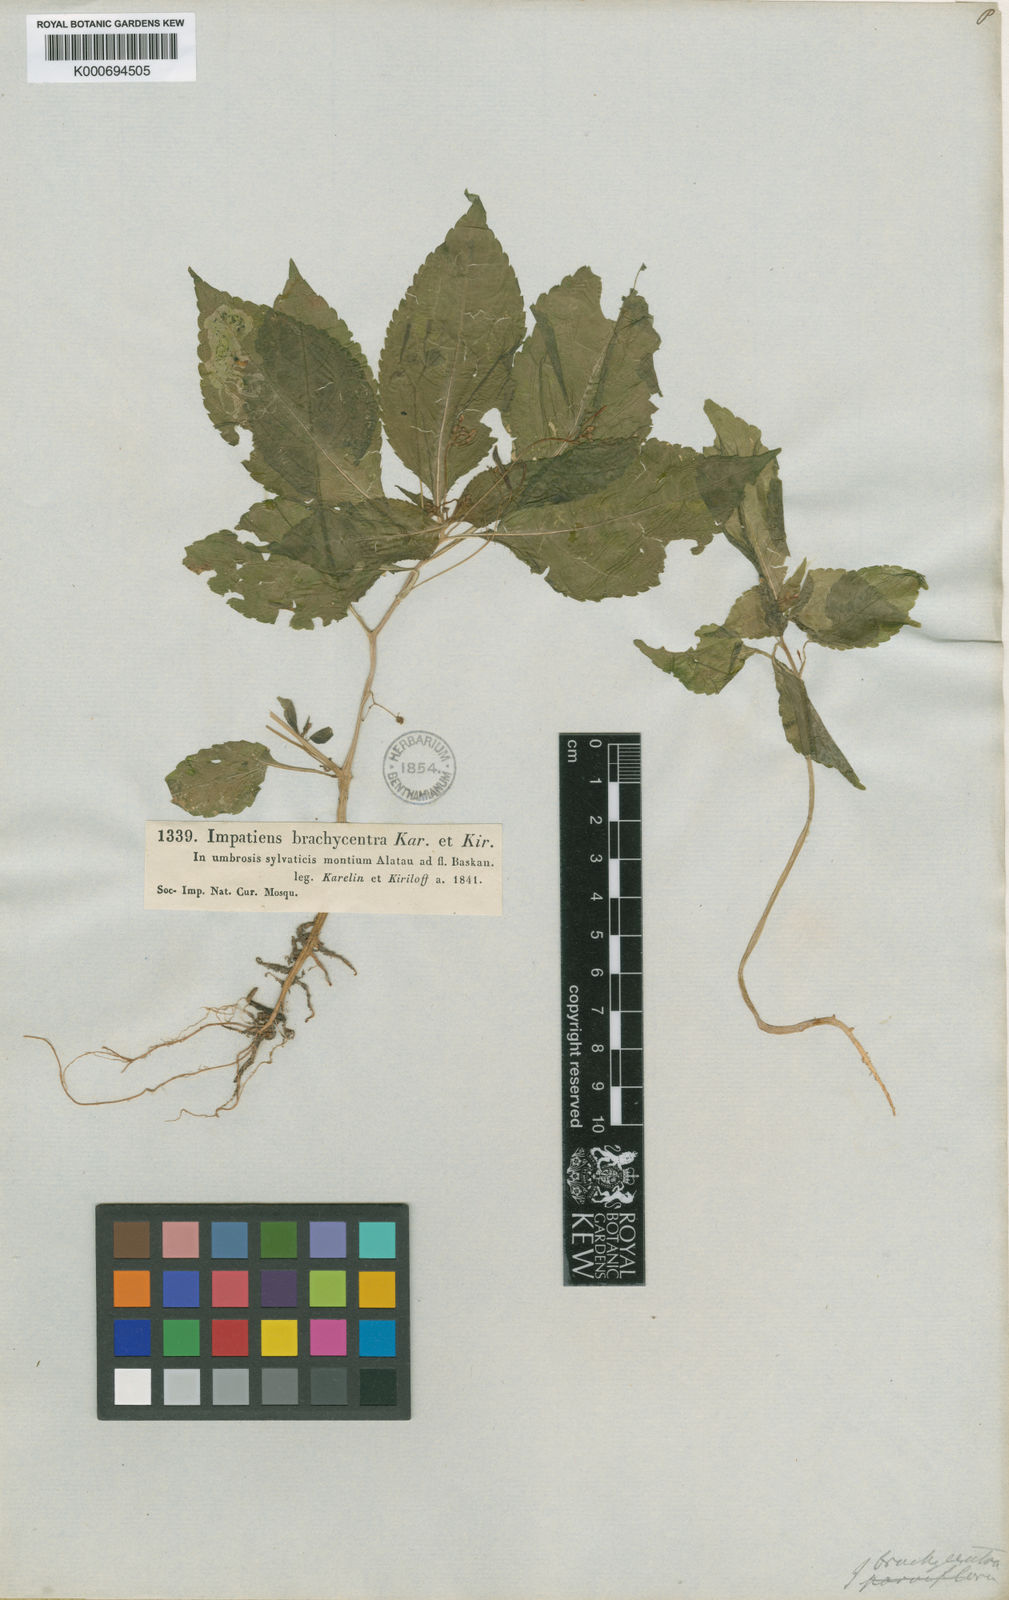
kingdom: Plantae
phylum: Tracheophyta
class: Magnoliopsida
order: Ericales
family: Balsaminaceae
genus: Impatiens
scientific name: Impatiens brachycentra
